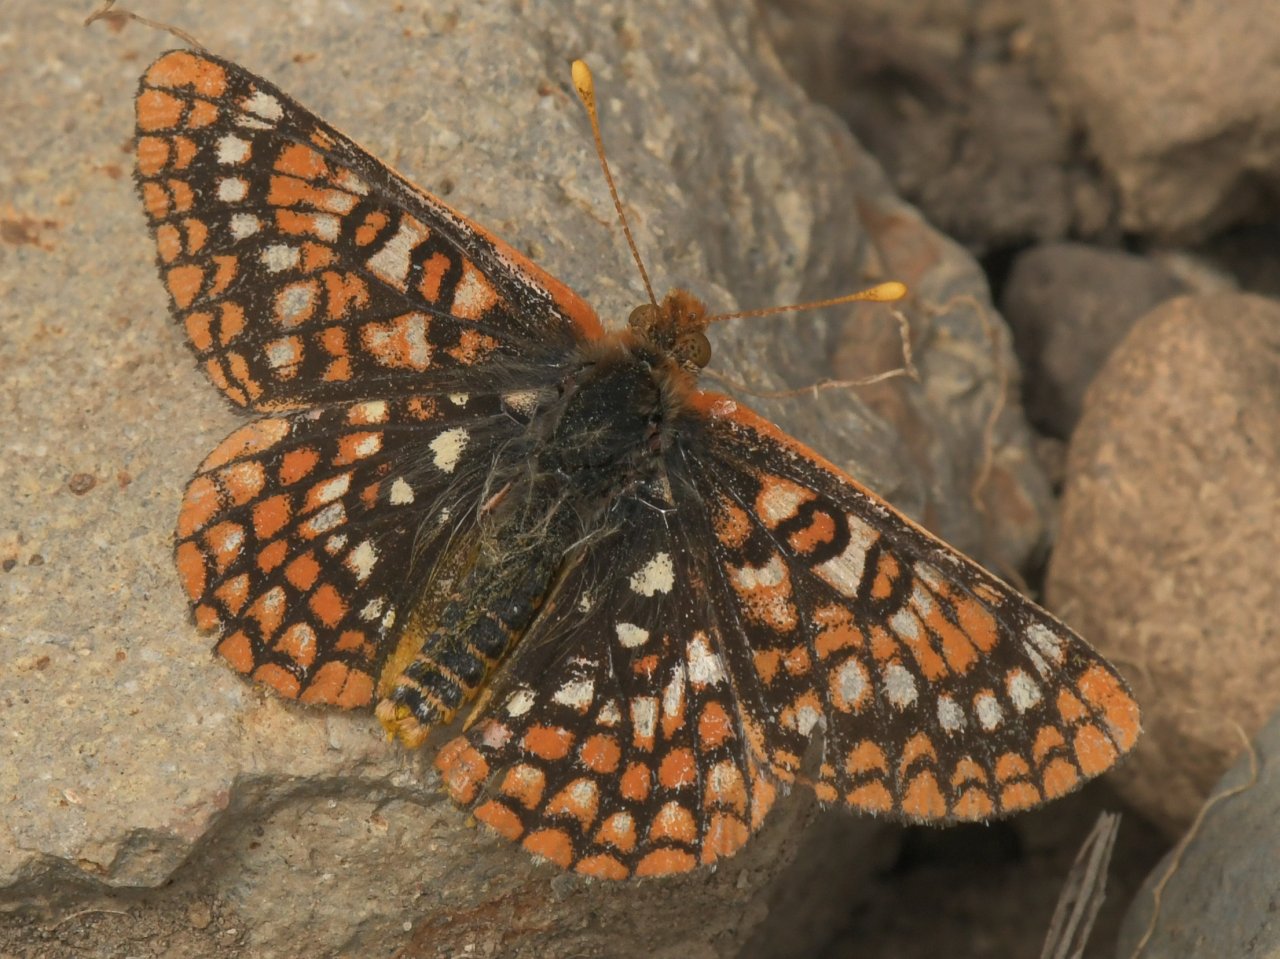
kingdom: Animalia
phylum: Arthropoda
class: Insecta
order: Lepidoptera
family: Nymphalidae
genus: Euphydryas
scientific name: Euphydryas
